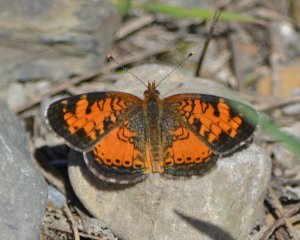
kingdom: Animalia
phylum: Arthropoda
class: Insecta
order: Lepidoptera
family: Nymphalidae
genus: Phyciodes
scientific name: Phyciodes tharos
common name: Northern Crescent
